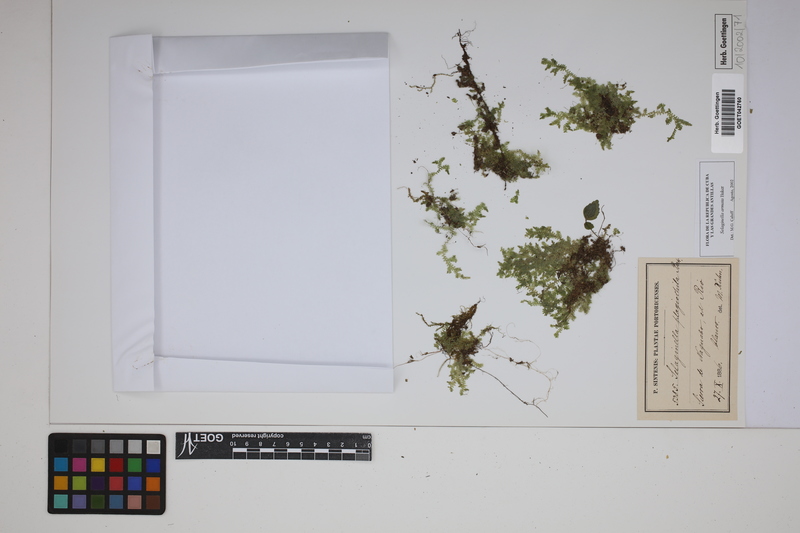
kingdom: Plantae
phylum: Tracheophyta
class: Lycopodiopsida
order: Selaginellales
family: Selaginellaceae
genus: Selaginella
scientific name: Selaginella plagiochila
